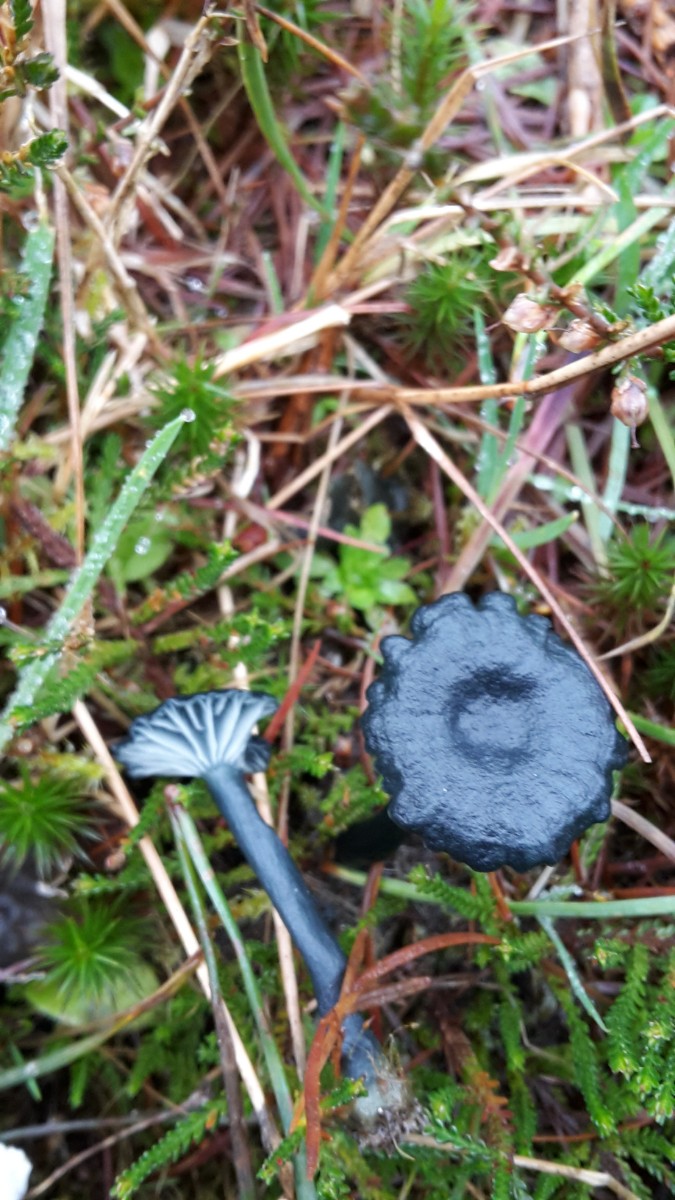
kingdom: Fungi
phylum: Basidiomycota
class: Agaricomycetes
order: Agaricales
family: Hygrophoraceae
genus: Arrhenia
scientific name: Arrhenia chlorocyanea
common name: blågrøn fontænehat
